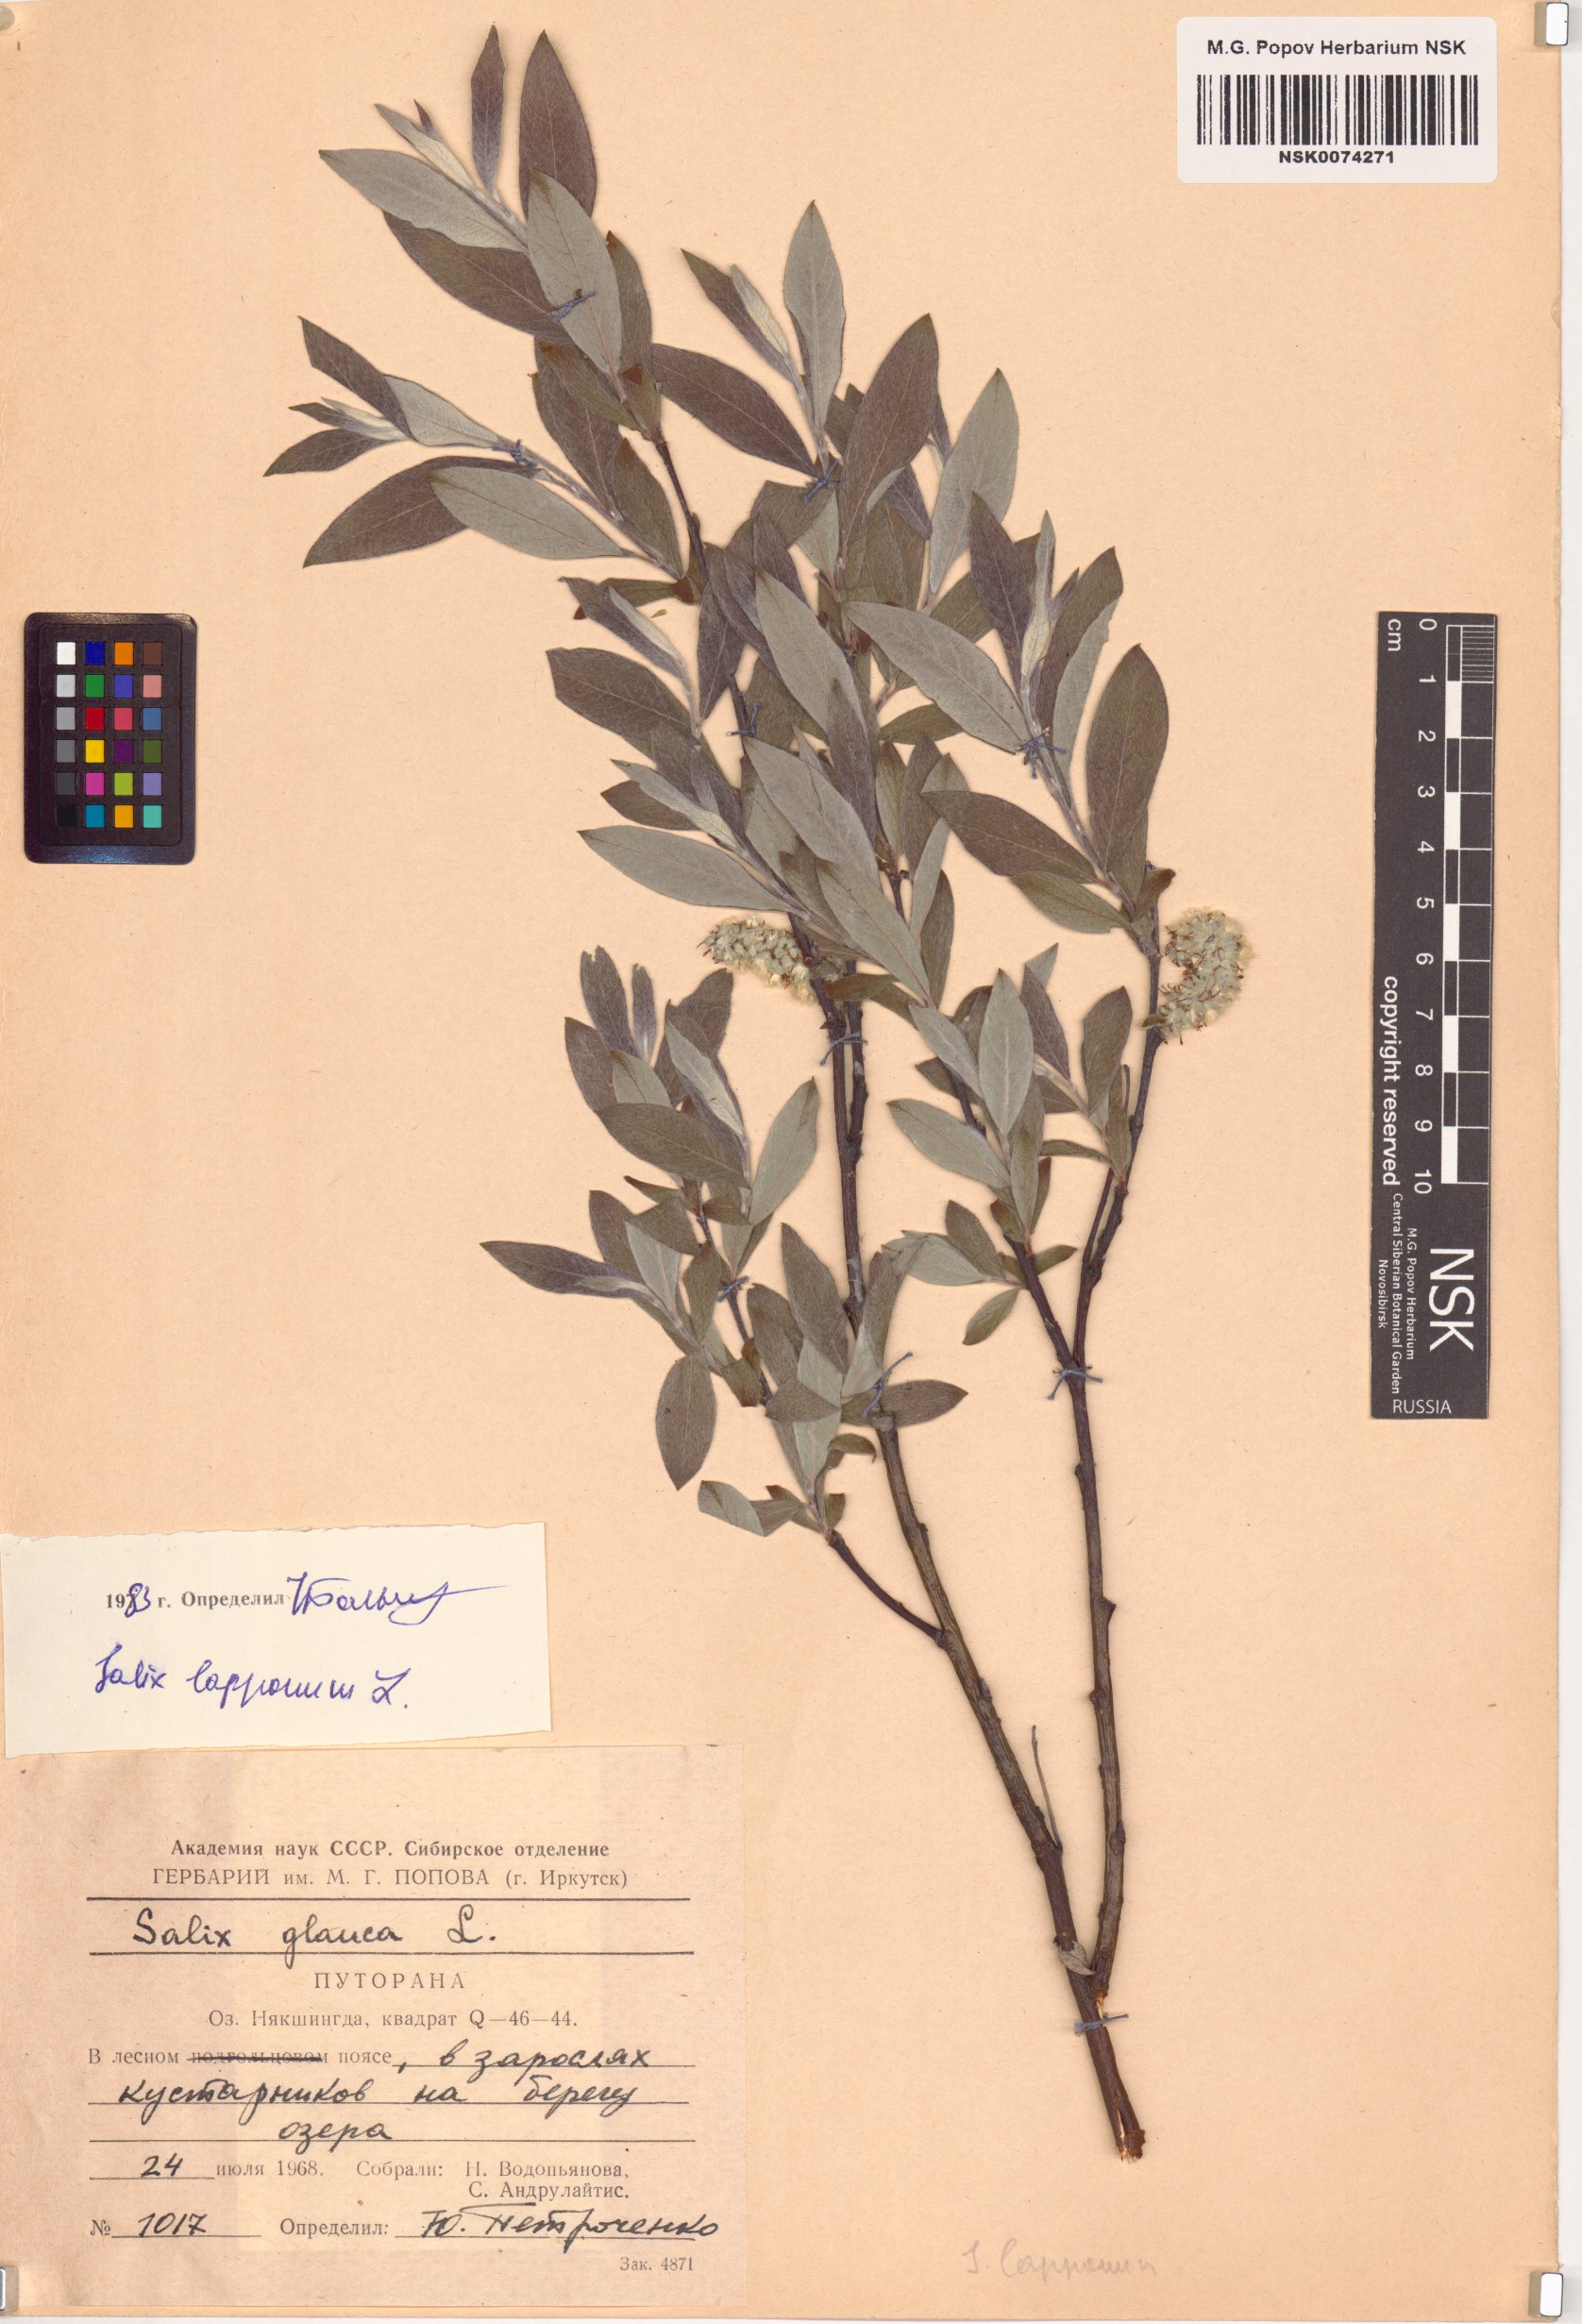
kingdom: Plantae
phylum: Tracheophyta
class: Magnoliopsida
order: Malpighiales
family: Salicaceae
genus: Salix
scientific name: Salix lapponum
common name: Downy willow
